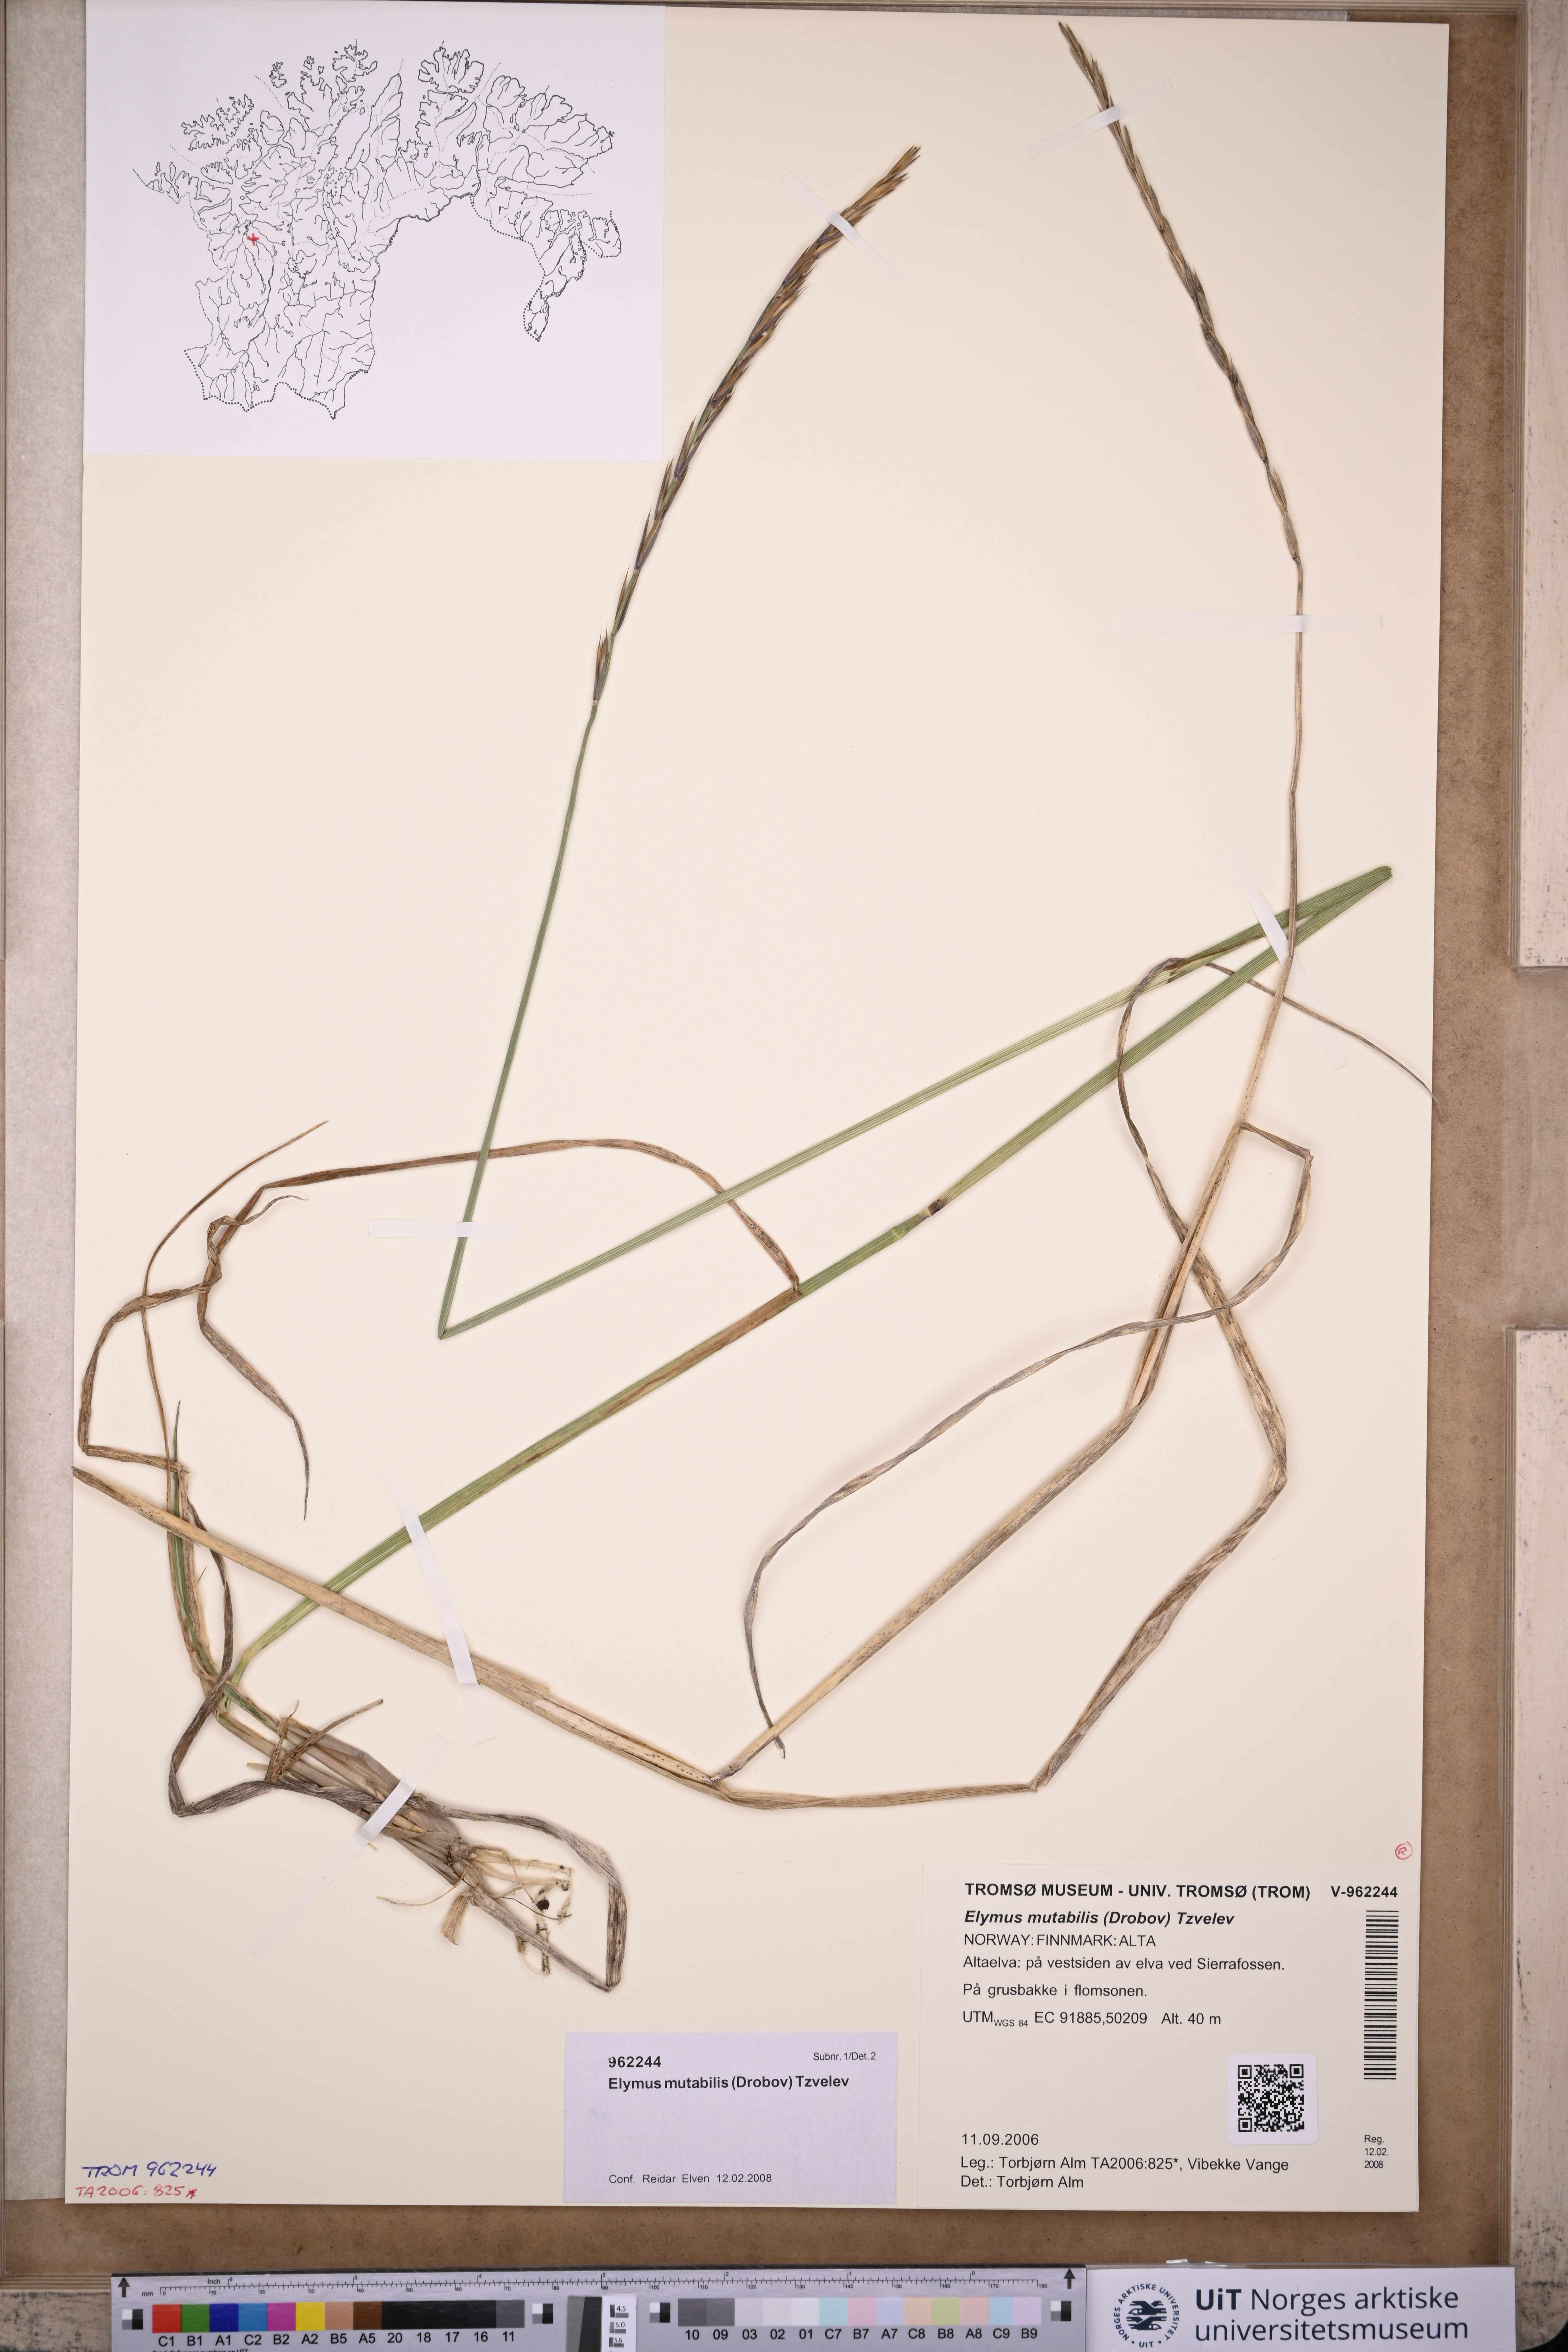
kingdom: Plantae
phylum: Tracheophyta
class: Liliopsida
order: Poales
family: Poaceae
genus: Elymus
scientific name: Elymus mutabilis
